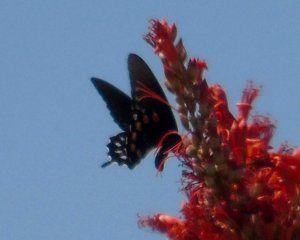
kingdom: Animalia
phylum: Arthropoda
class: Insecta
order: Lepidoptera
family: Papilionidae
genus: Battus
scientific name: Battus philenor
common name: Pipevine Swallowtail
